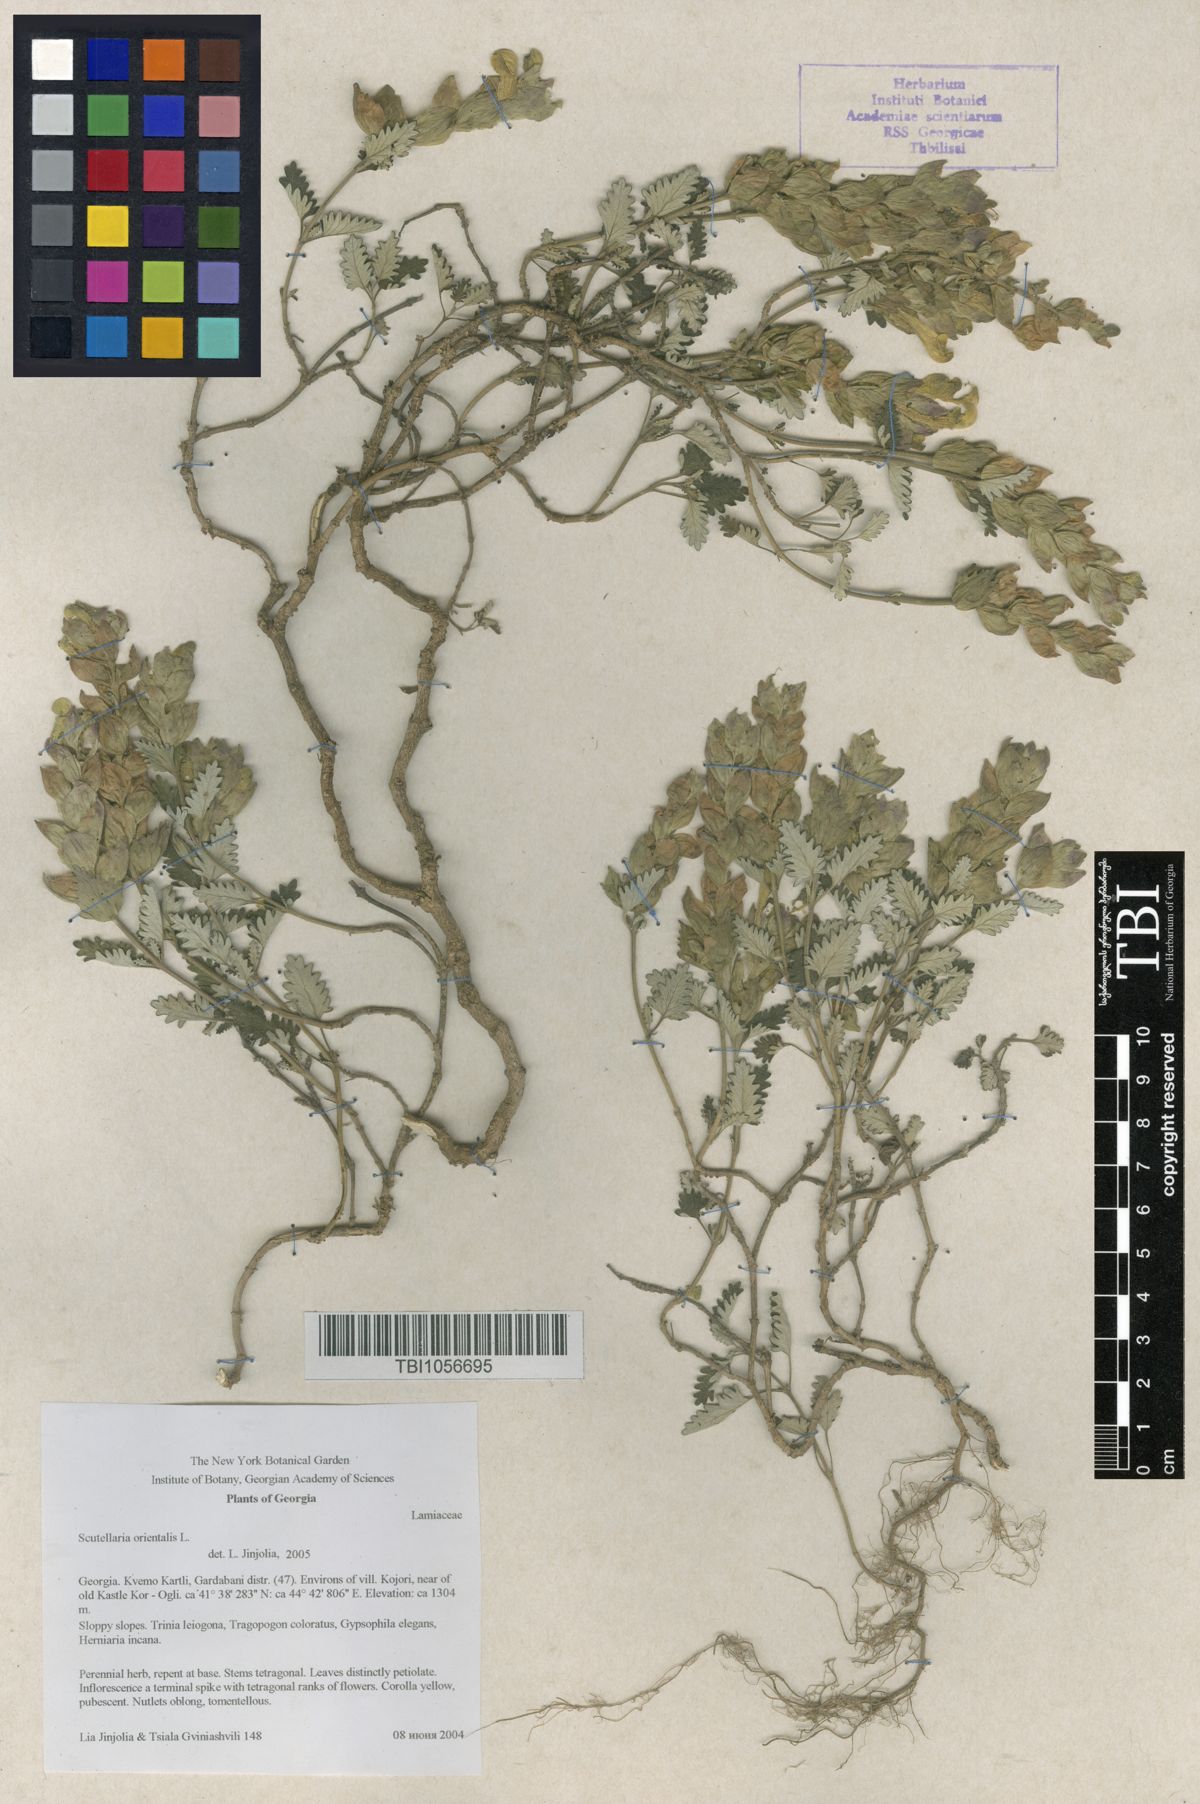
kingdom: Plantae
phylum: Tracheophyta
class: Magnoliopsida
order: Lamiales
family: Lamiaceae
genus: Scutellaria
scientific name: Scutellaria orientalis
